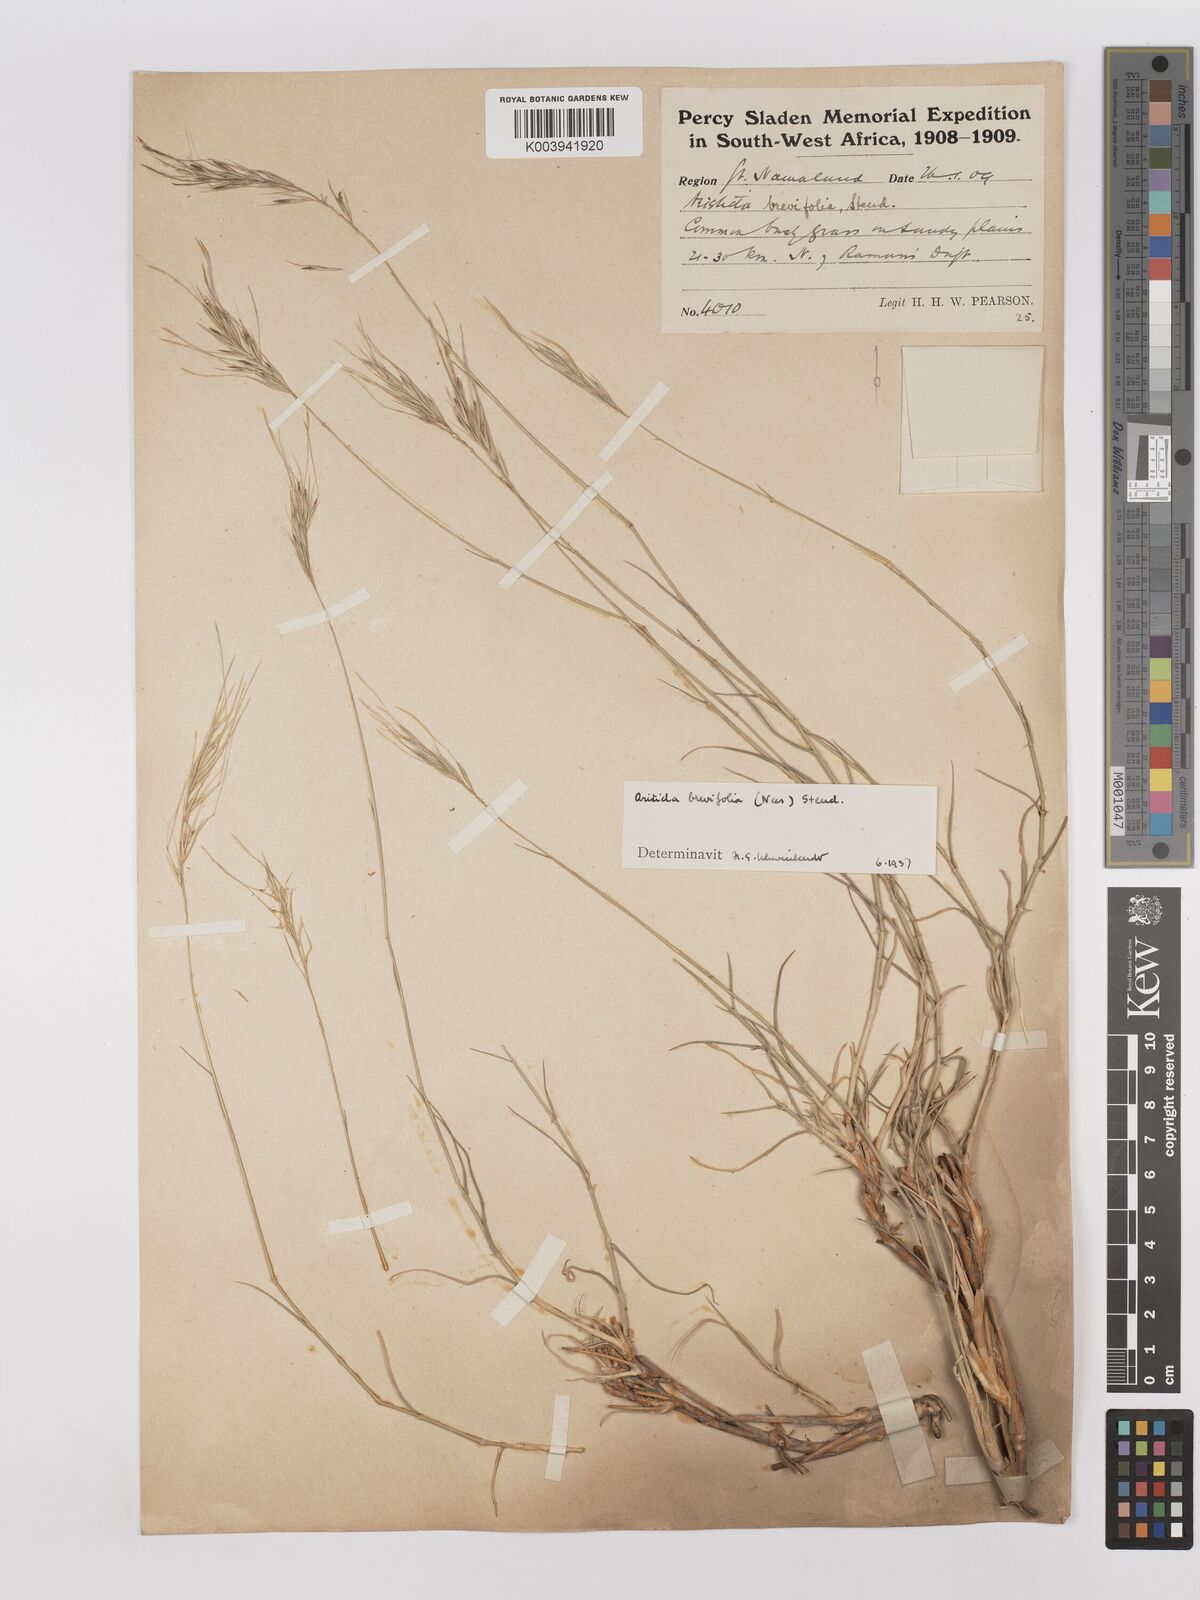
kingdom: Plantae
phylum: Tracheophyta
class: Liliopsida
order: Poales
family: Poaceae
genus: Stipagrostis
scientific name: Stipagrostis brevifolia
